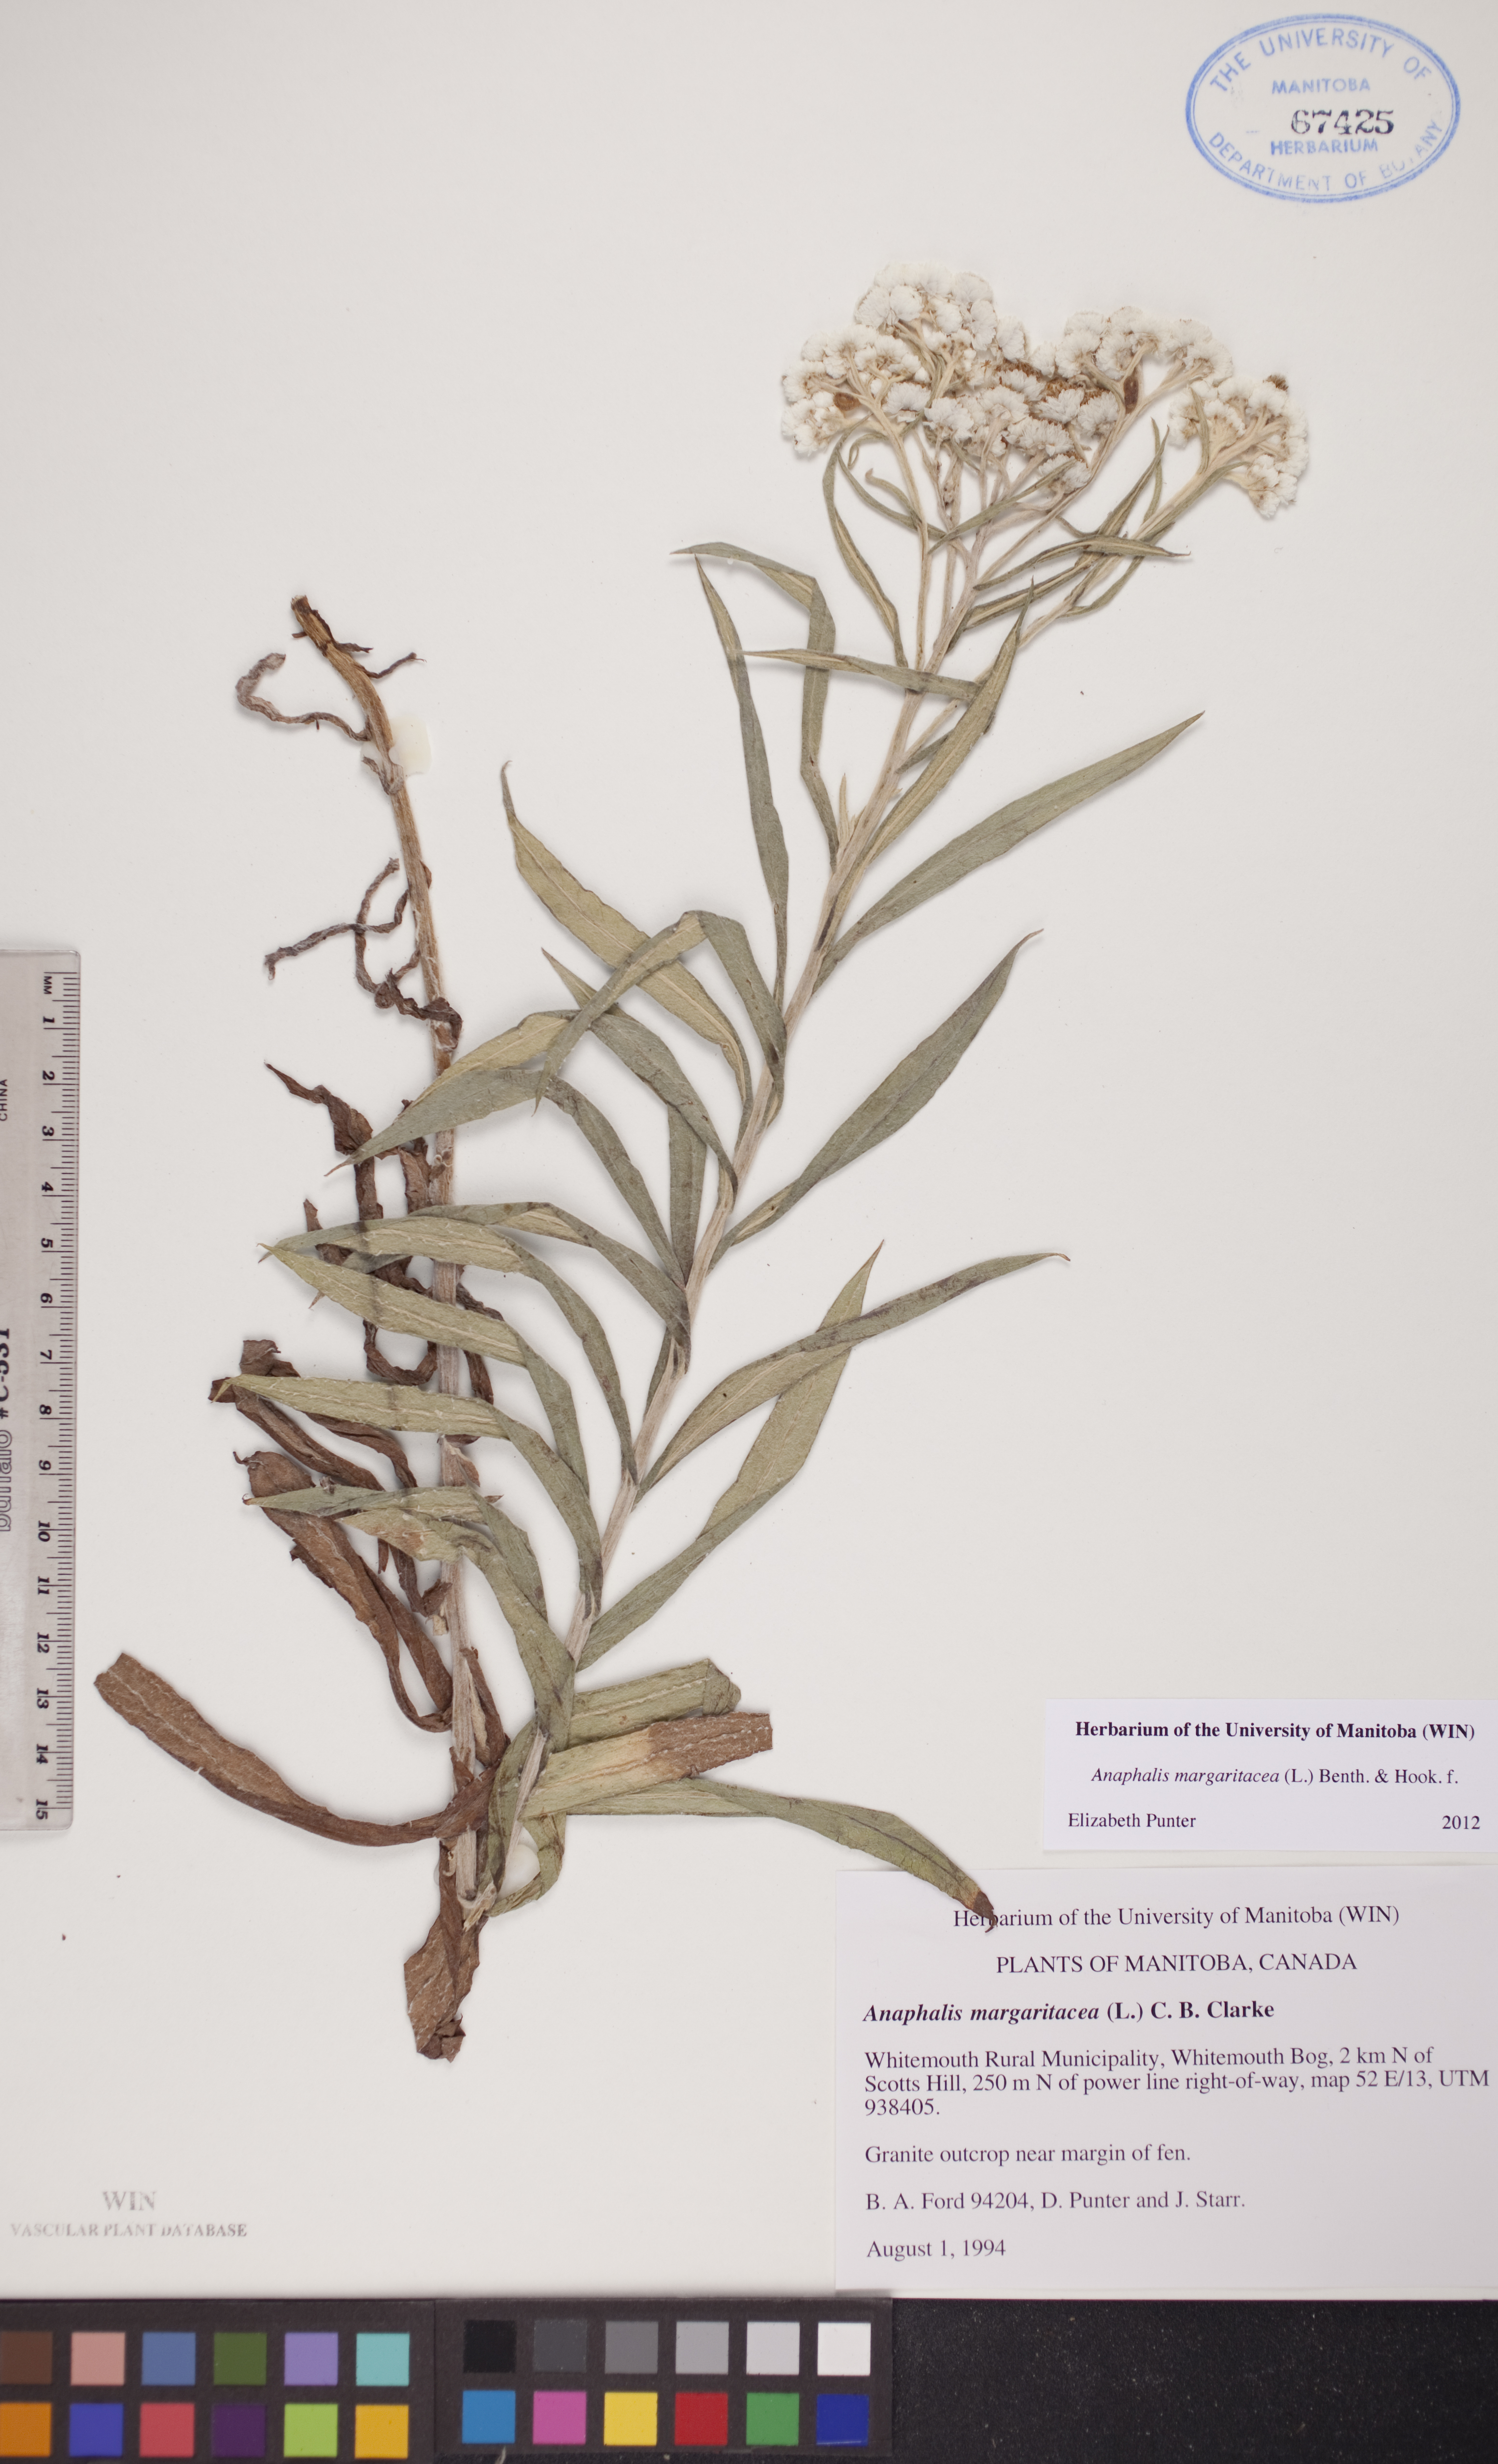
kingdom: Plantae
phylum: Tracheophyta
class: Magnoliopsida
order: Asterales
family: Asteraceae
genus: Anaphalis
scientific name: Anaphalis margaritacea
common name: Pearly everlasting
